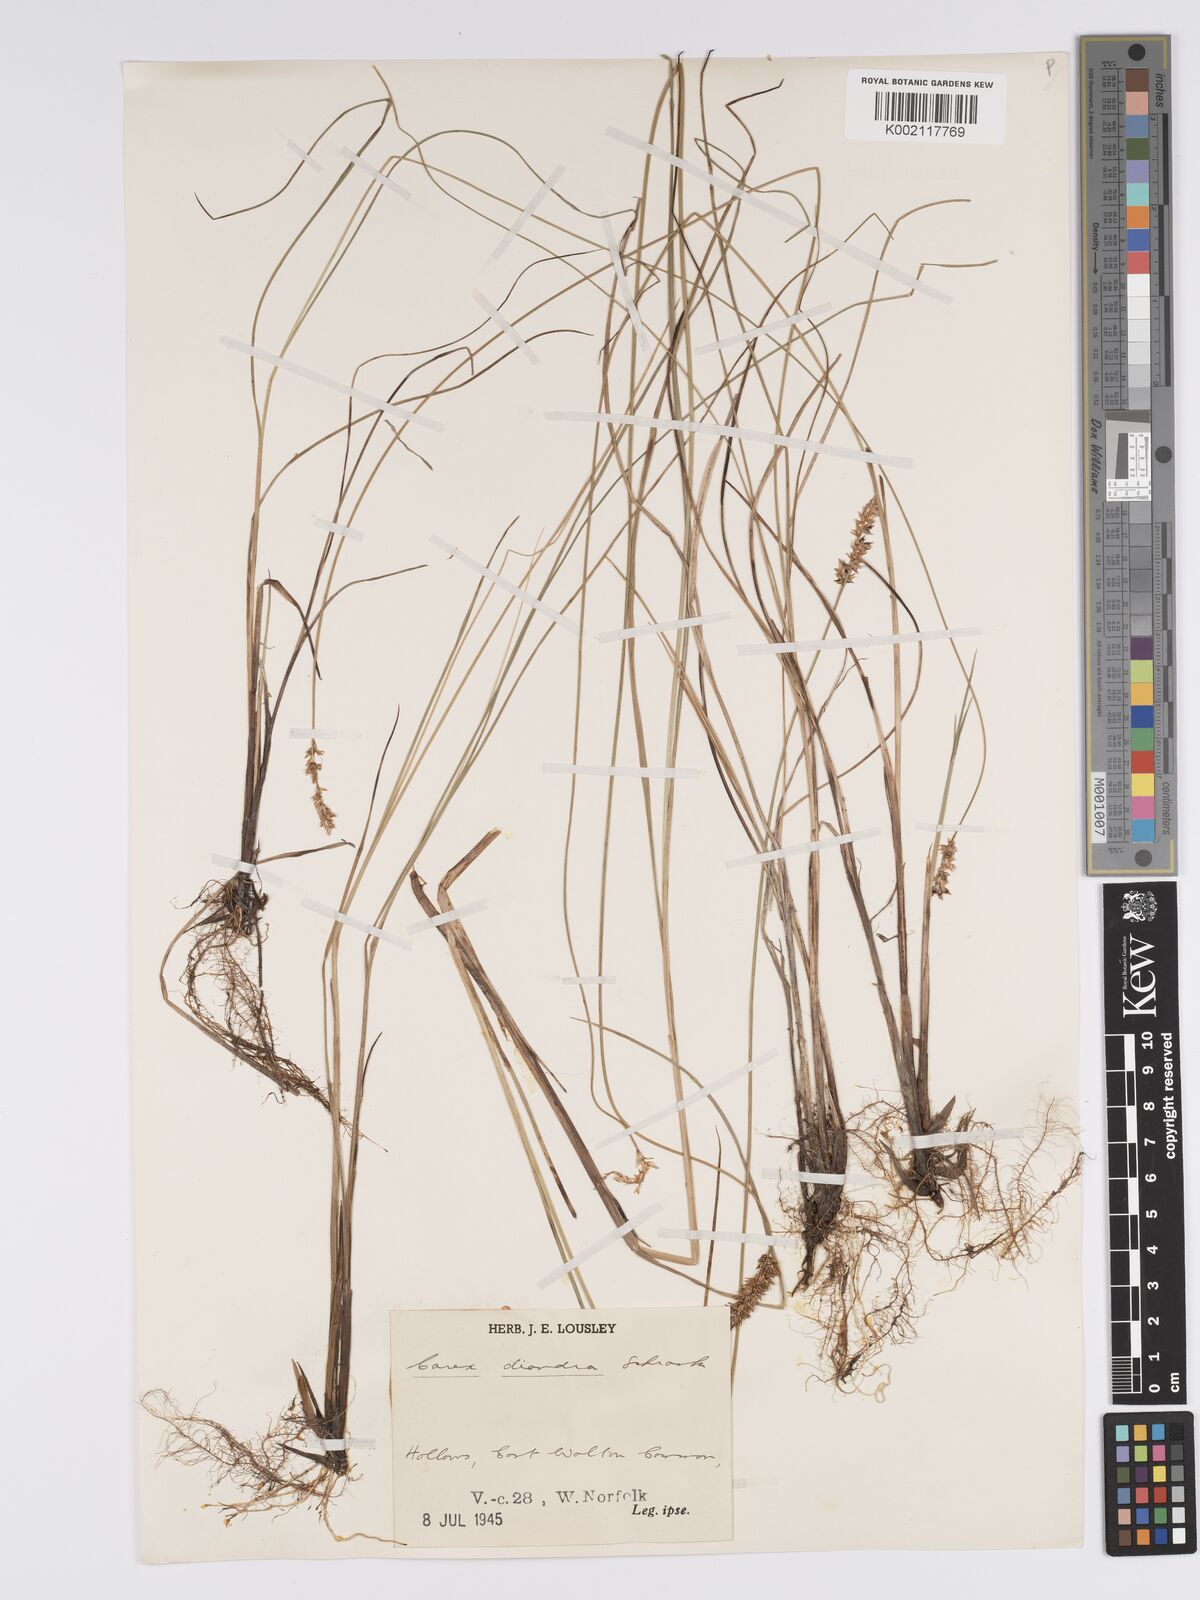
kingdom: Plantae
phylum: Tracheophyta
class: Liliopsida
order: Poales
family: Cyperaceae
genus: Carex
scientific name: Carex diandra
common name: Lesser tussock-sedge
